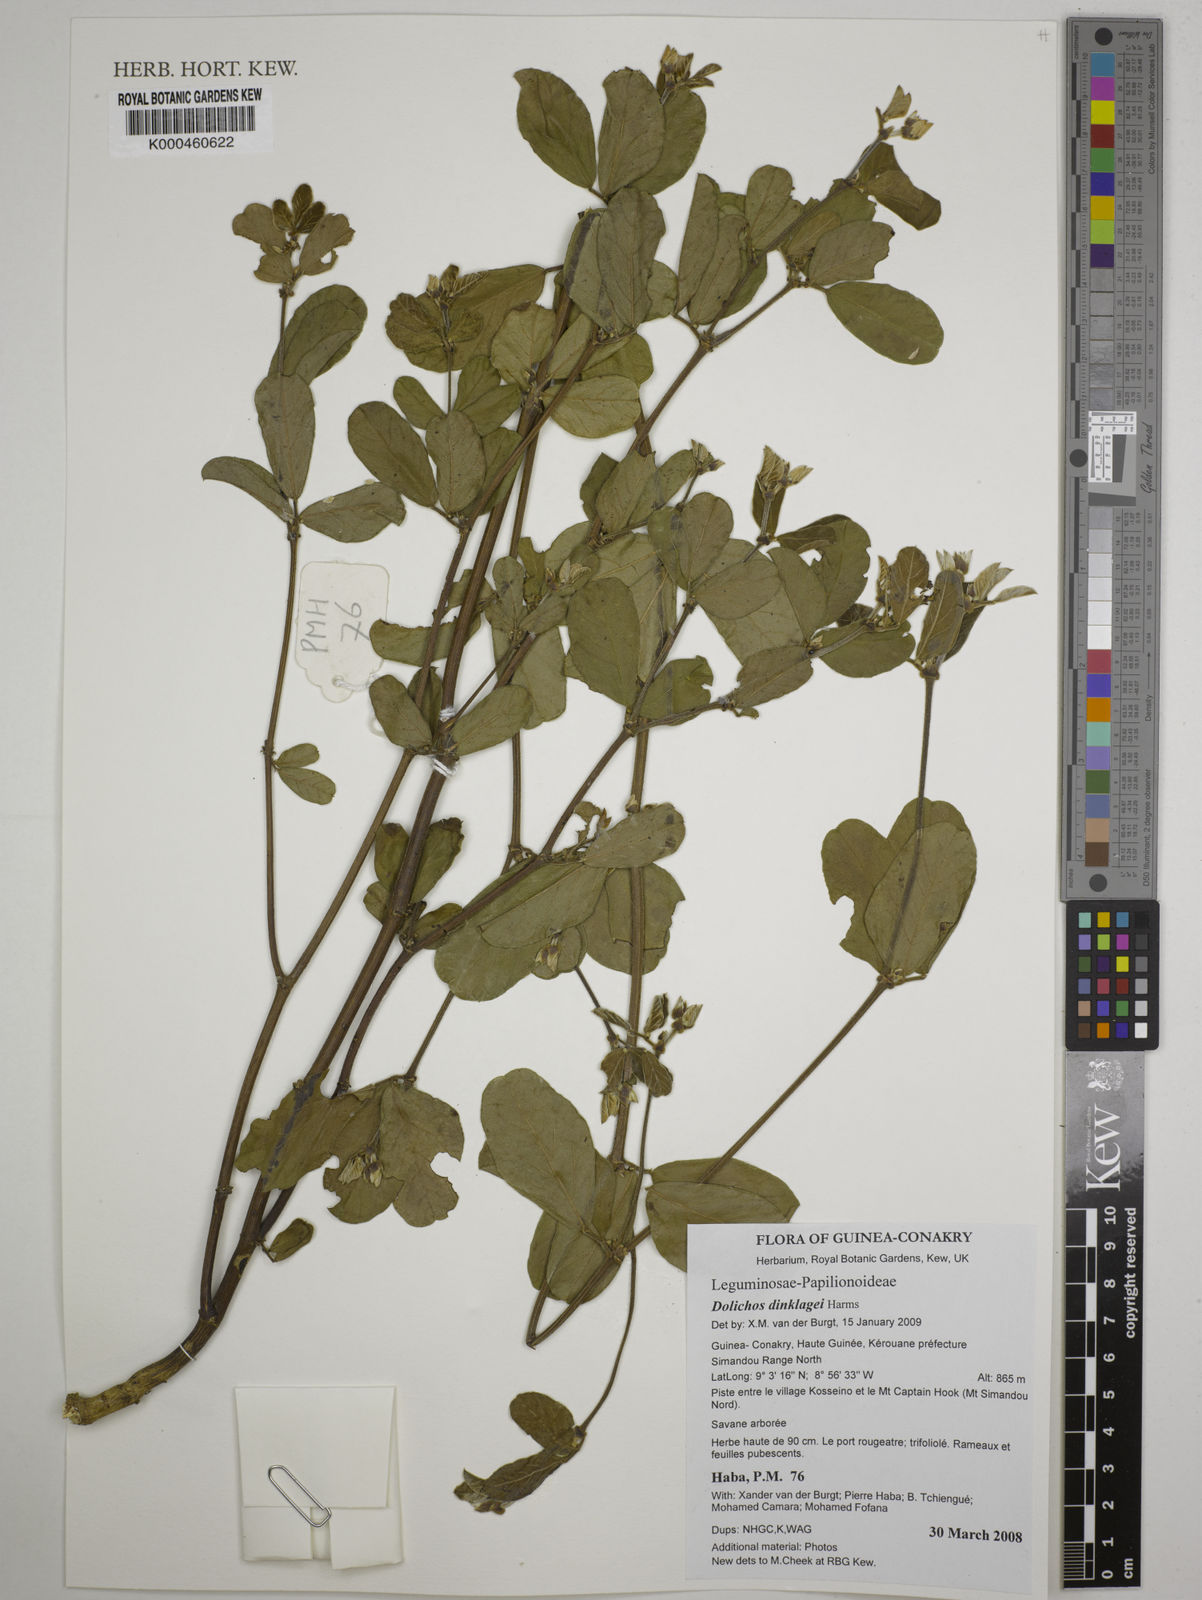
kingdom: Plantae
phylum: Tracheophyta
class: Magnoliopsida
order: Fabales
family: Fabaceae
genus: Dolichos
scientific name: Dolichos dinklagei
